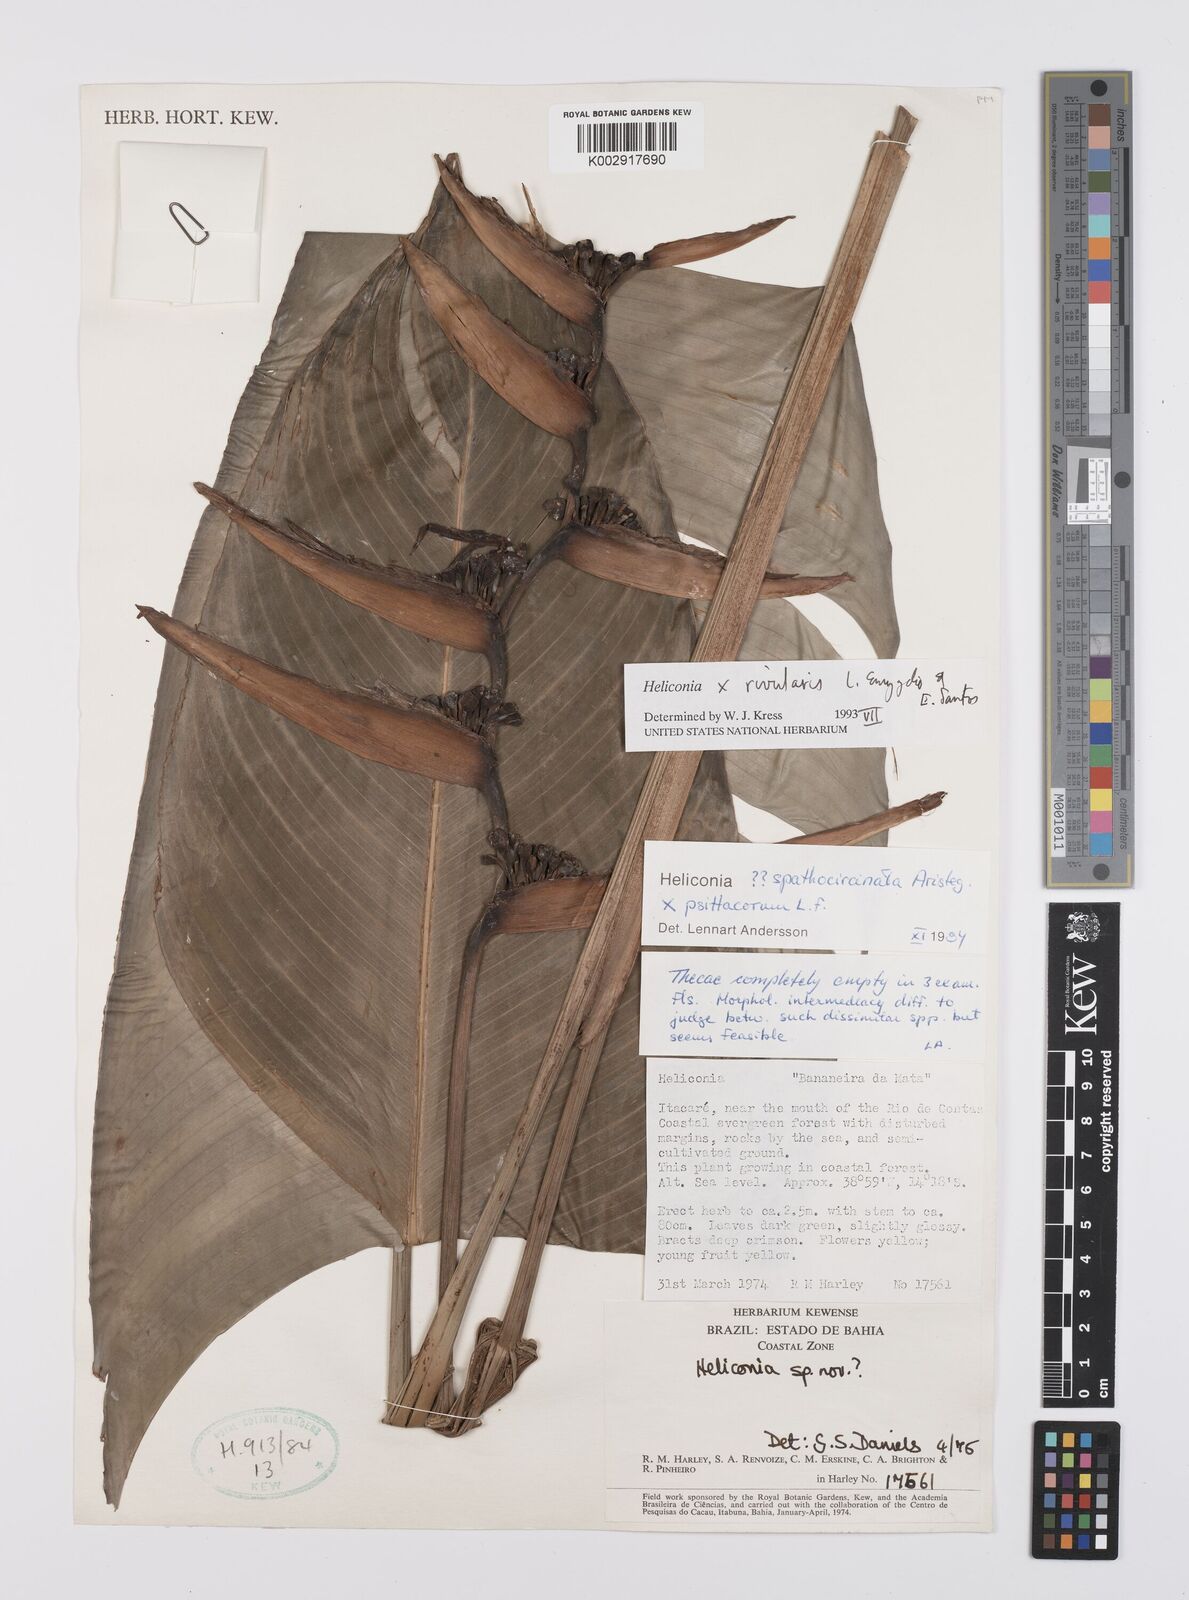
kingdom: Plantae
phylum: Tracheophyta
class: Liliopsida
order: Zingiberales
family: Heliconiaceae
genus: Heliconia
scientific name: Heliconia rivularis
